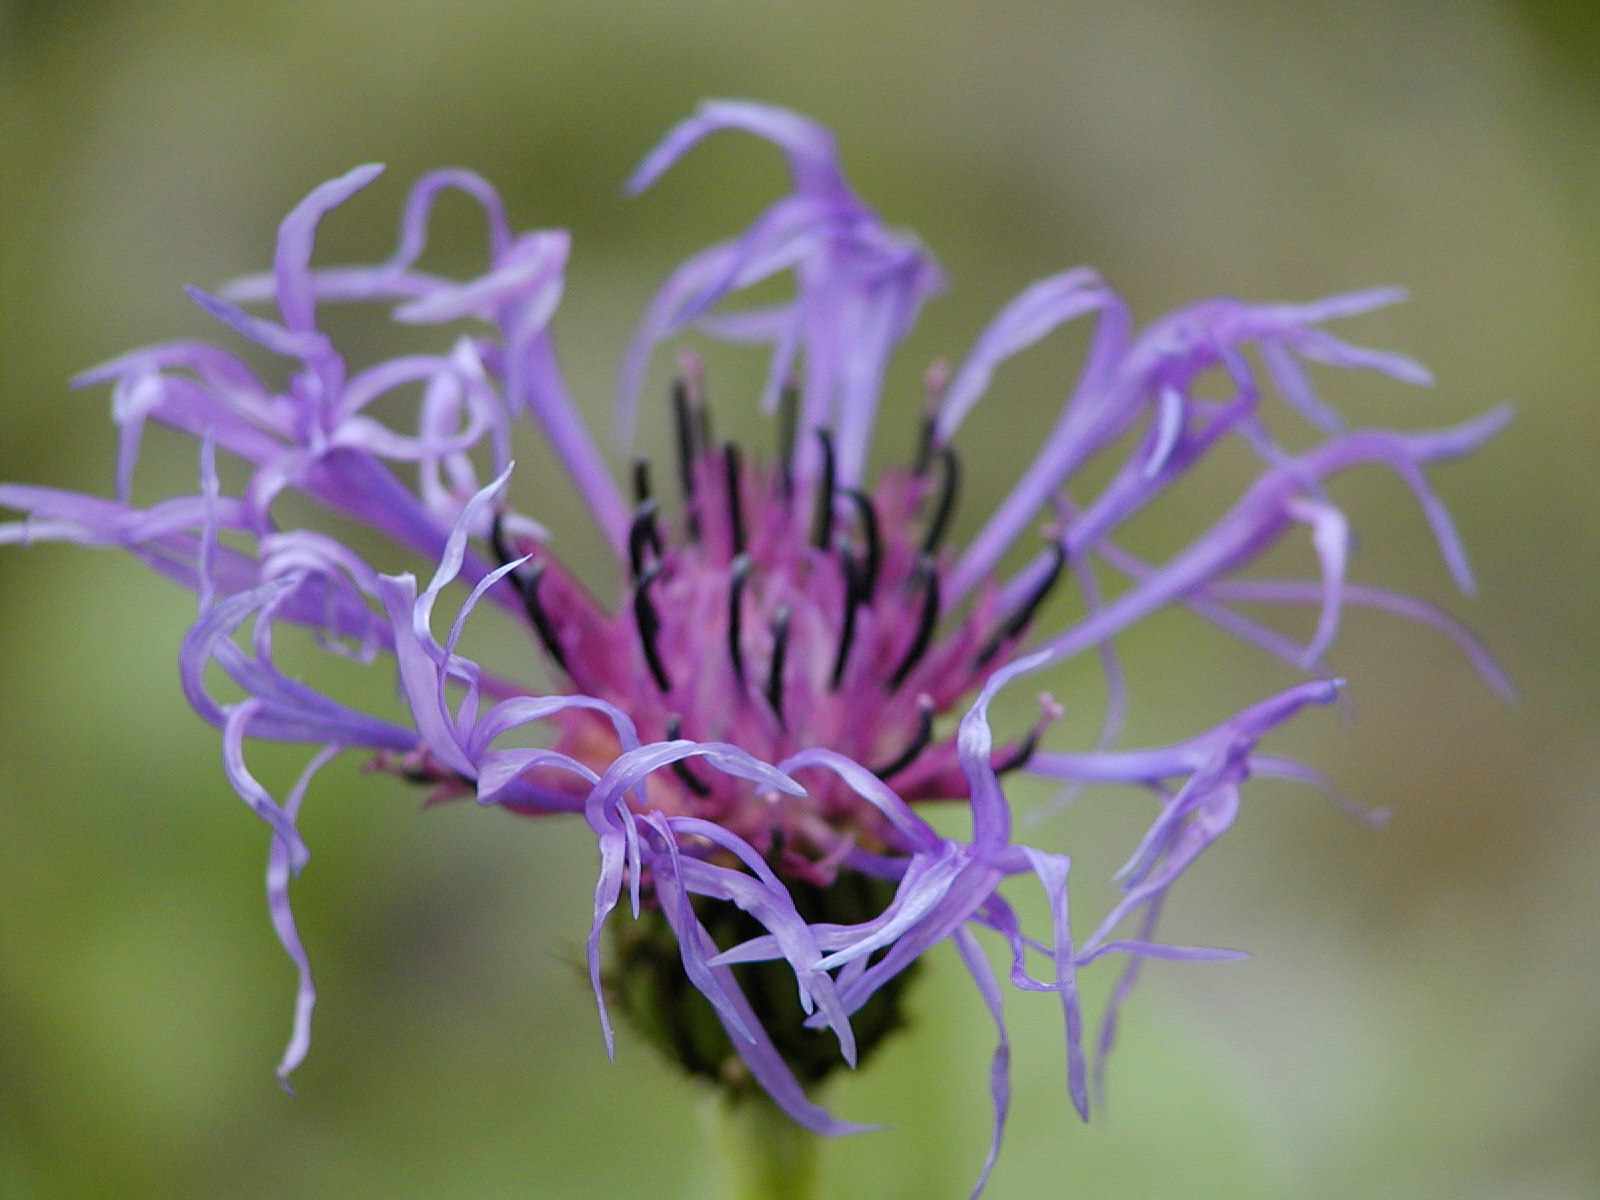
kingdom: Plantae
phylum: Tracheophyta
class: Magnoliopsida
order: Asterales
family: Asteraceae
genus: Centaurea
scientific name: Centaurea montana
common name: Perennial cornflower
